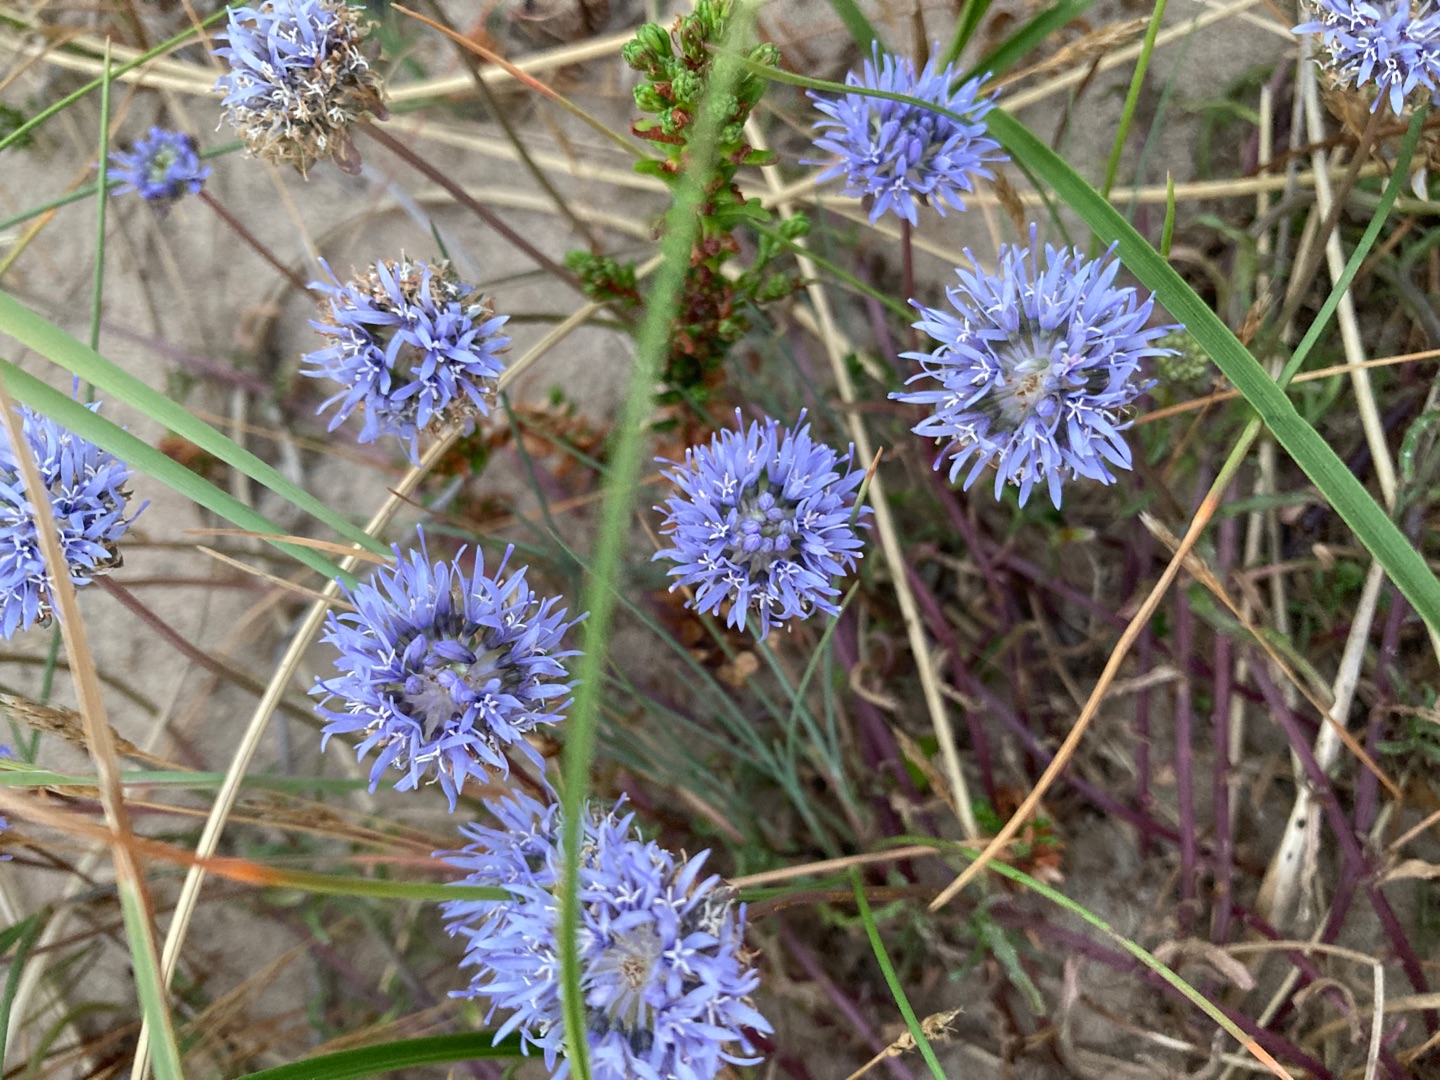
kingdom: Plantae
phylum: Tracheophyta
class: Magnoliopsida
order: Asterales
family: Campanulaceae
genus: Jasione
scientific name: Jasione montana
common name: Blåmunke
